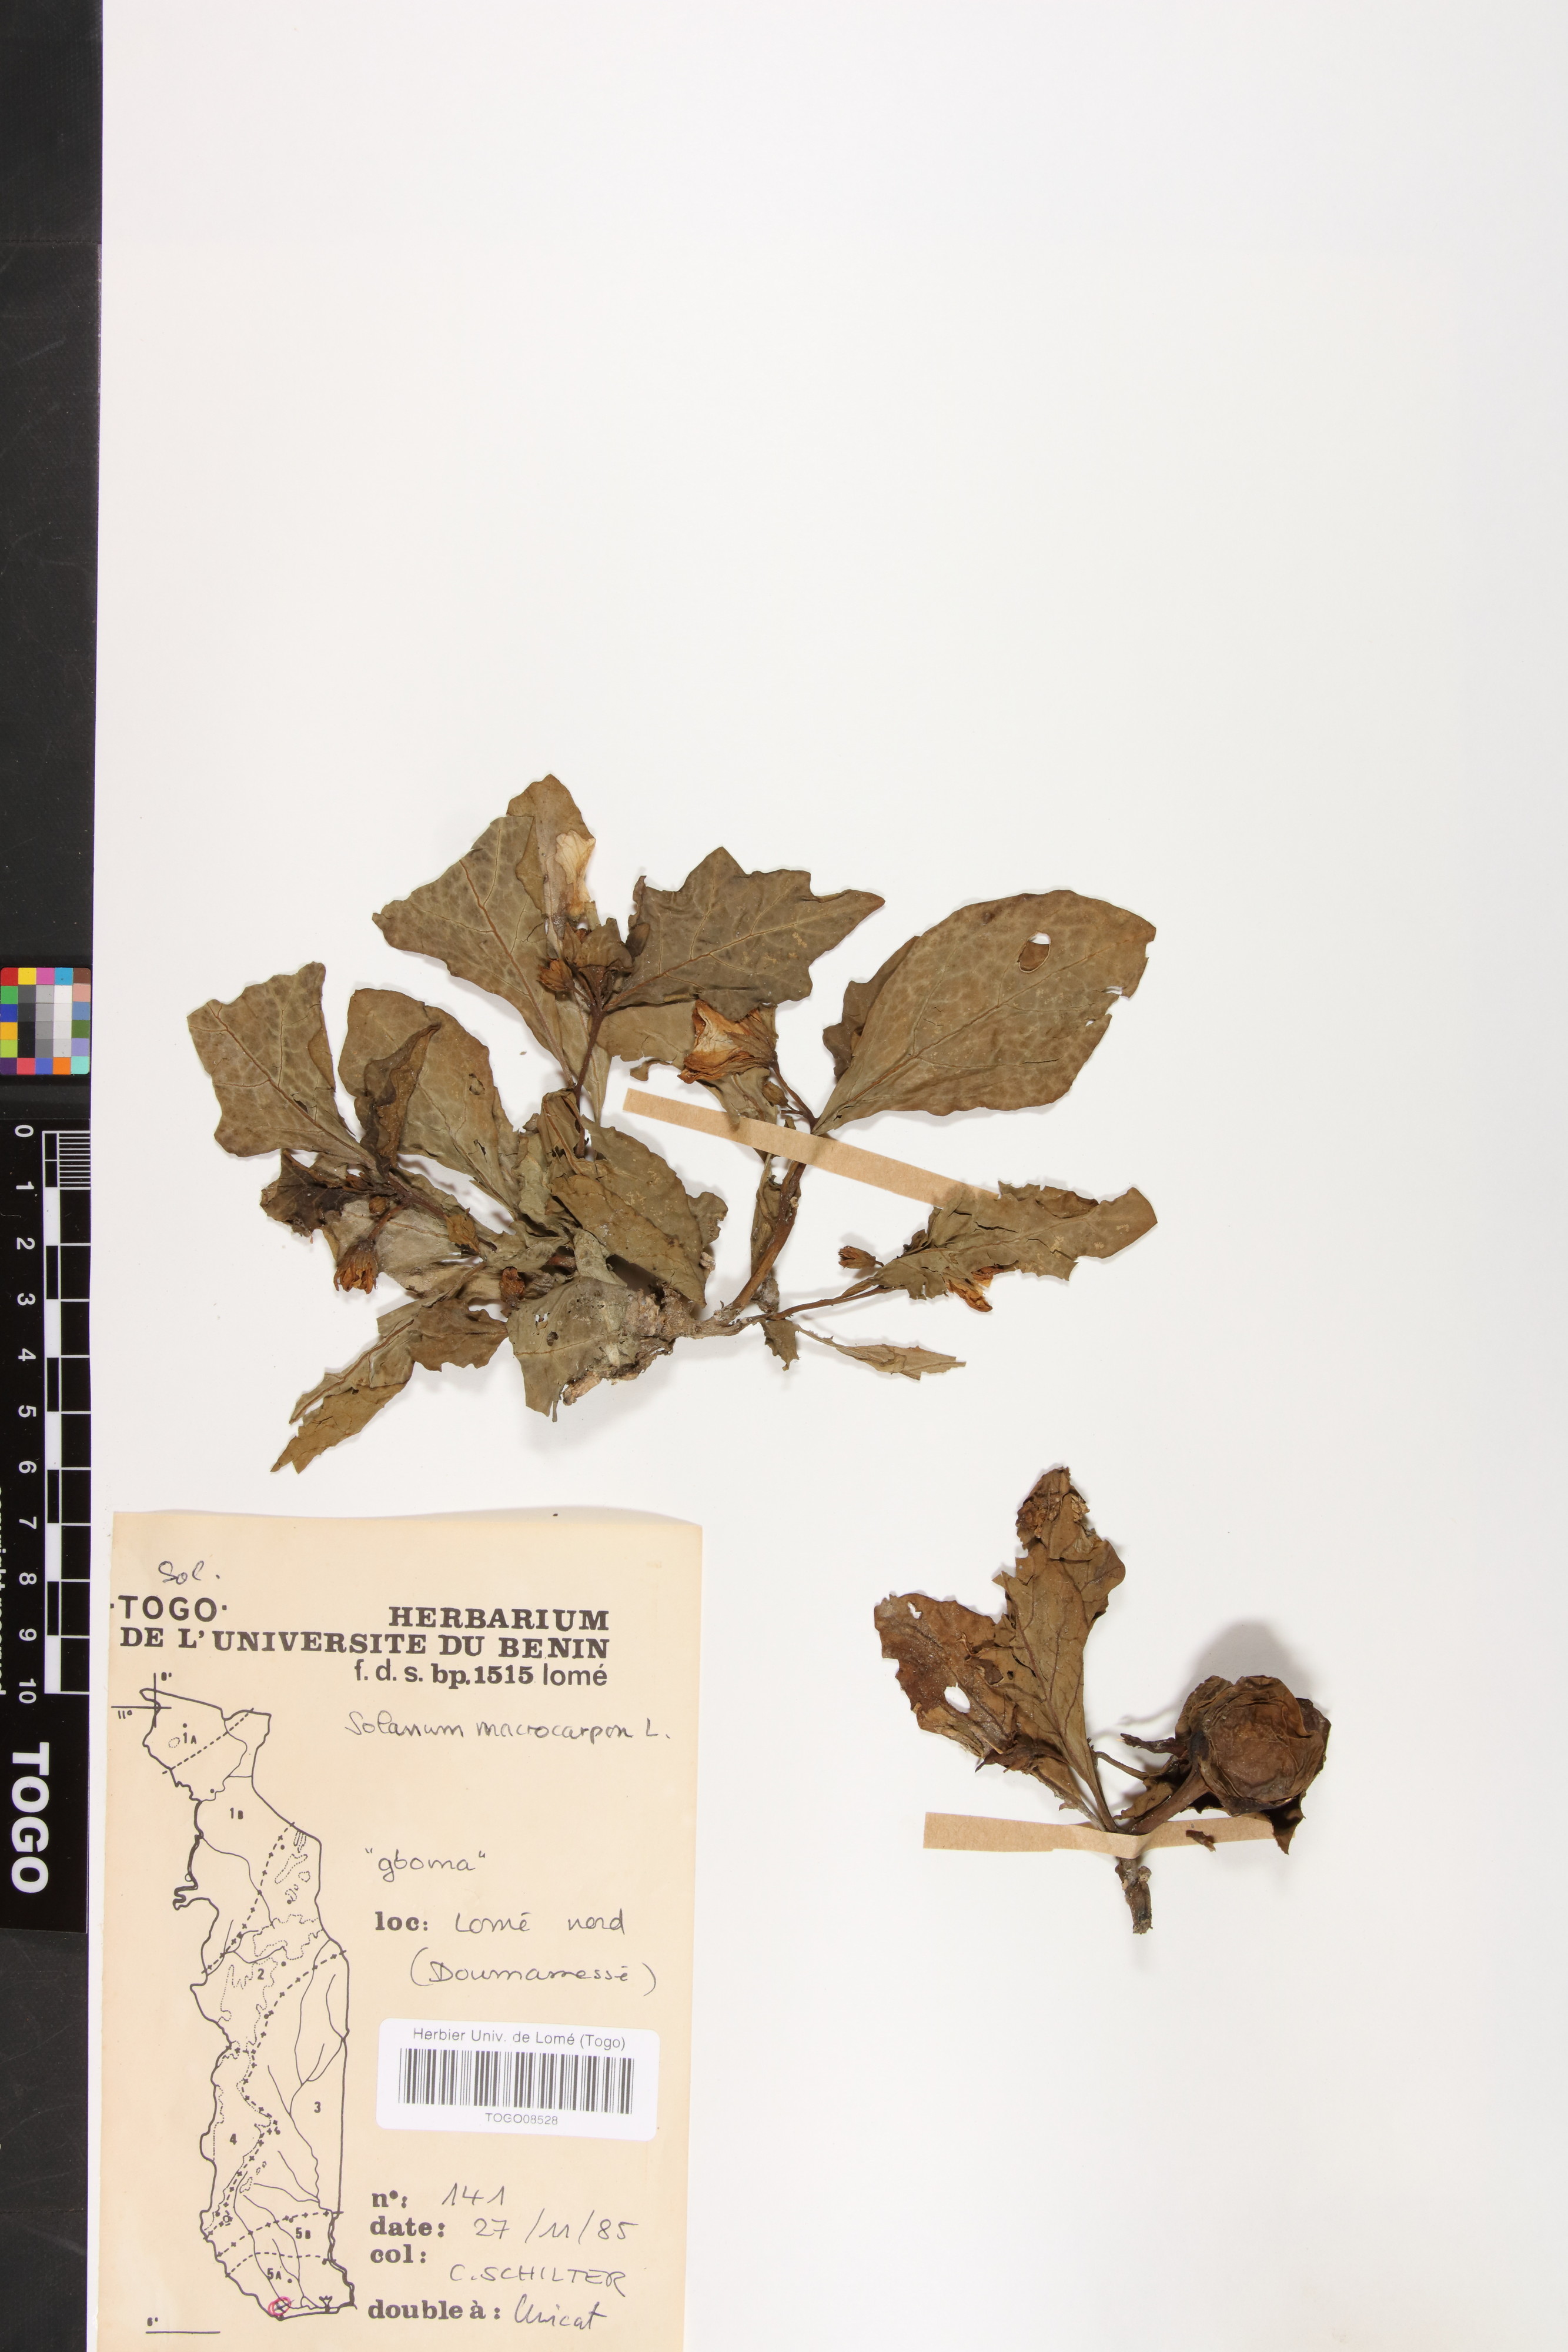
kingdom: Plantae
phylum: Tracheophyta
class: Magnoliopsida
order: Solanales
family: Solanaceae
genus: Solanum
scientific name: Solanum macrocarpon
